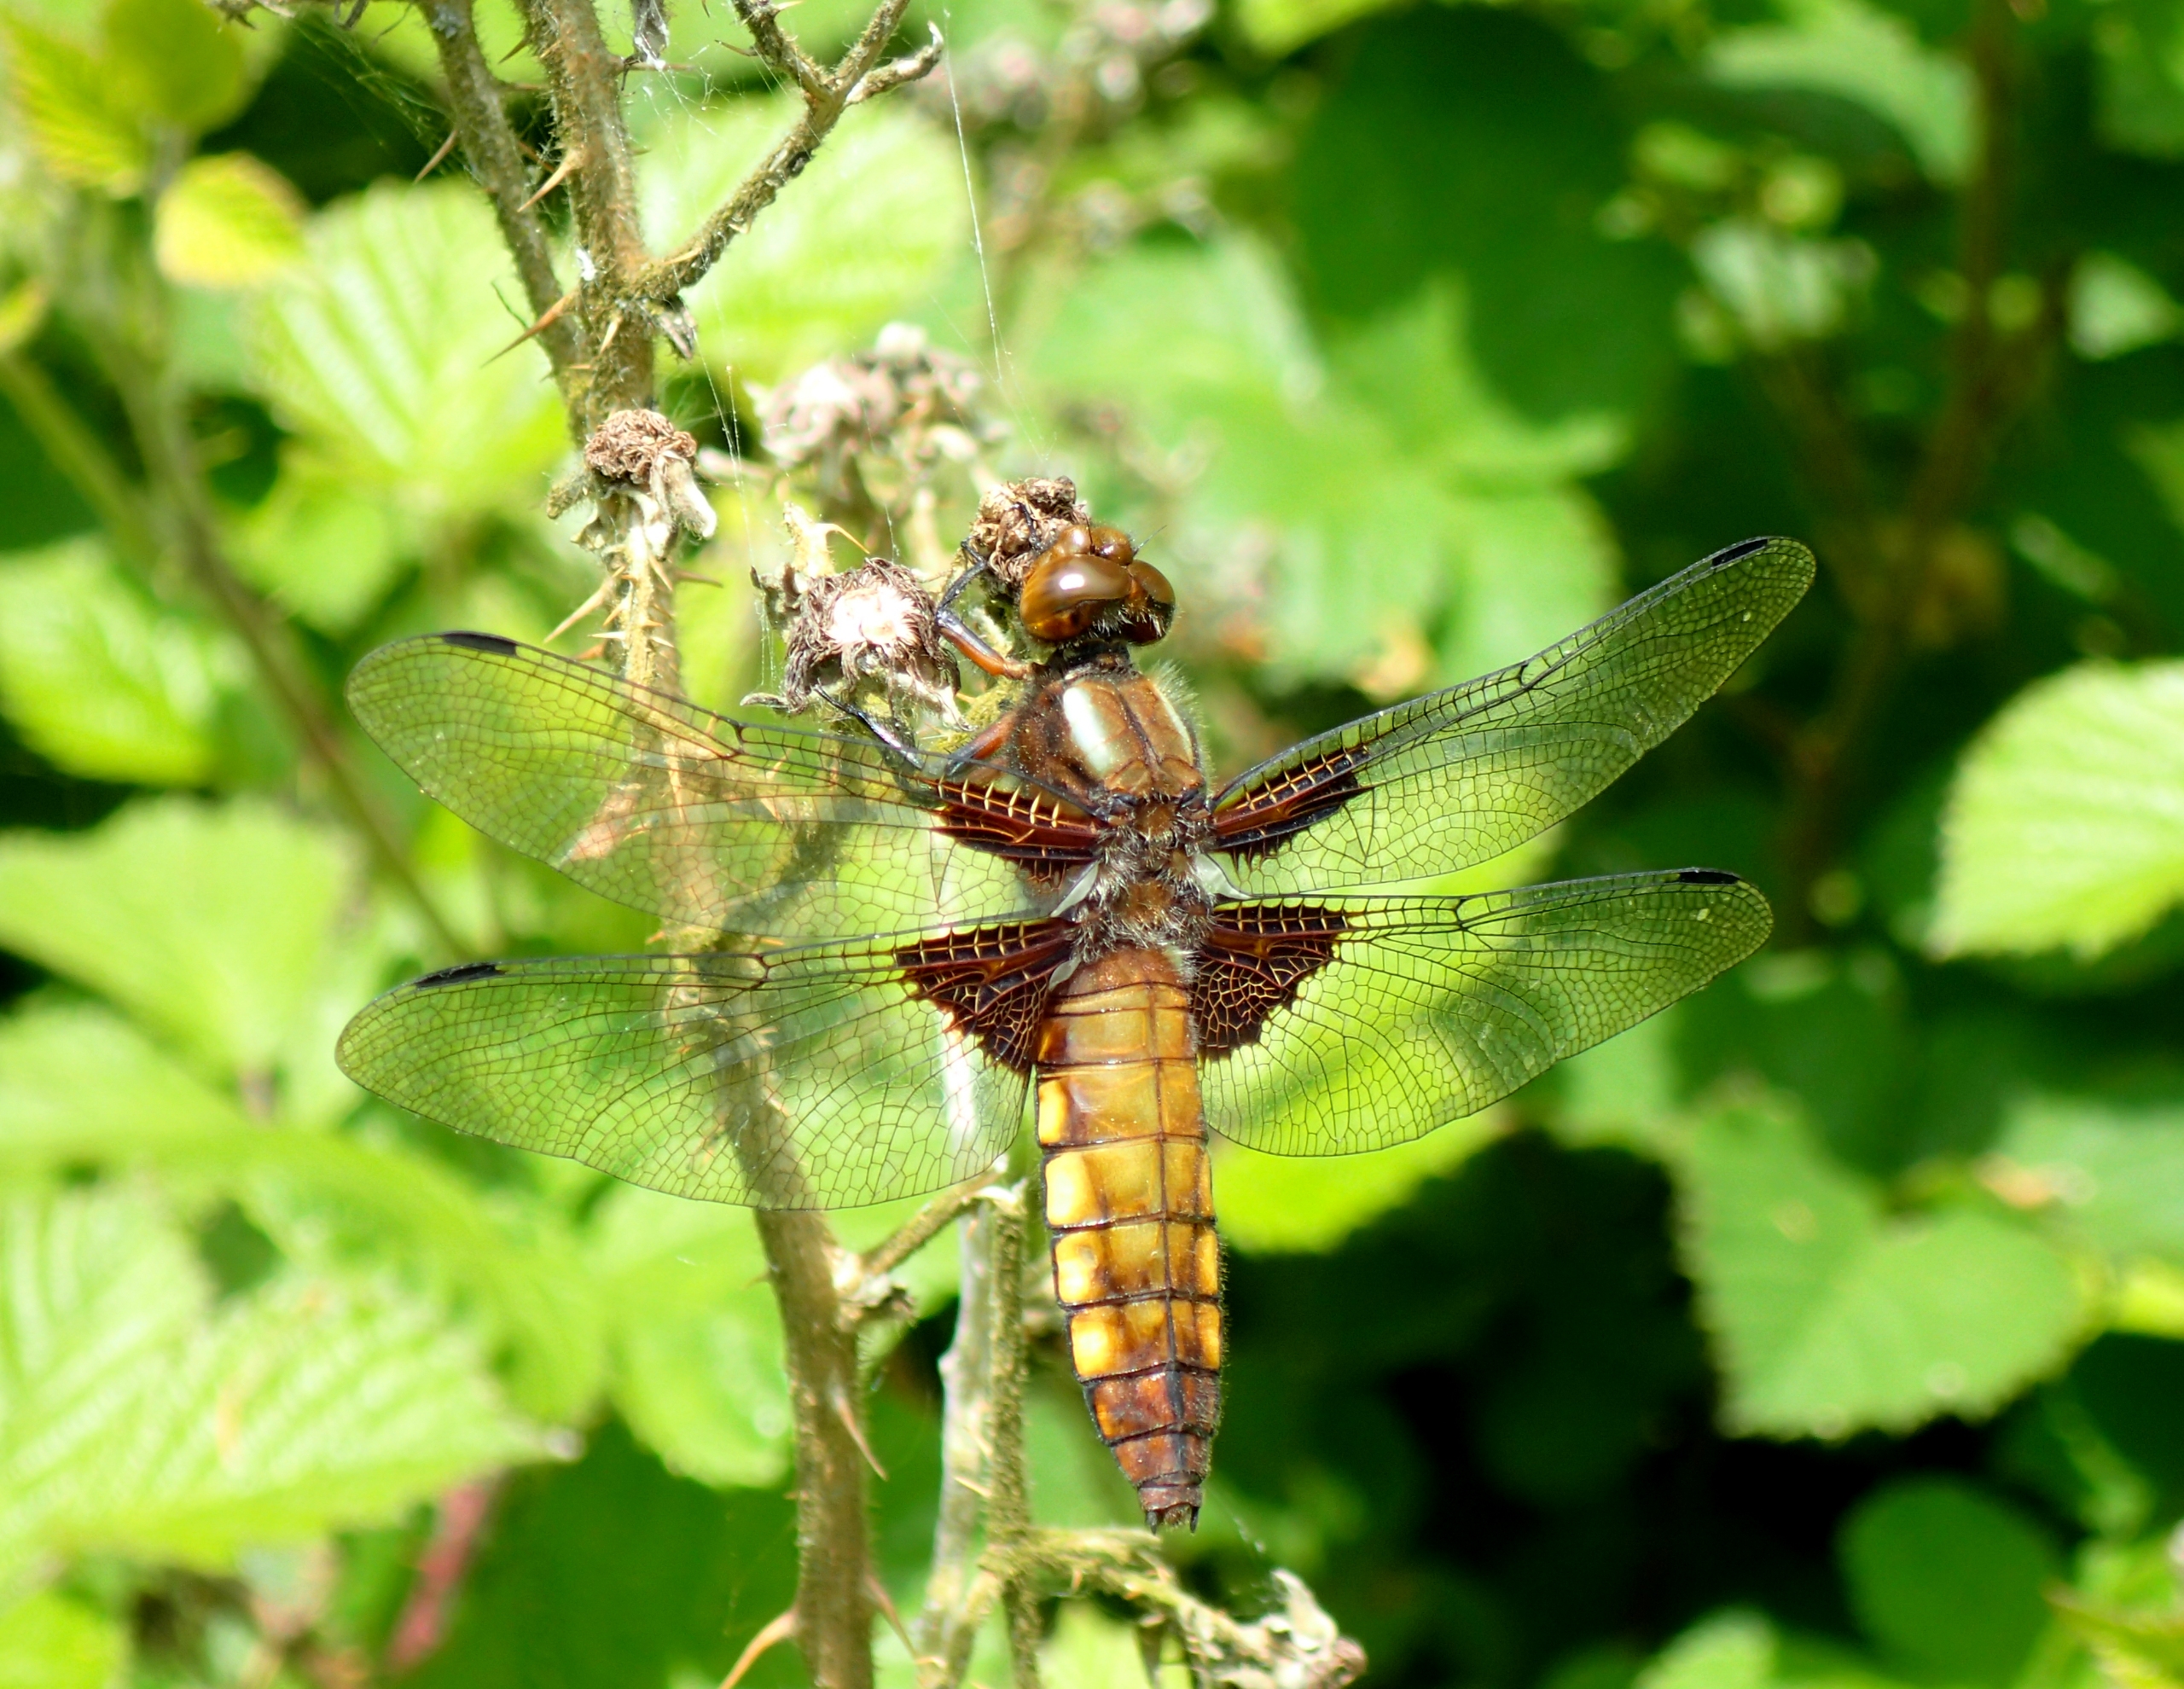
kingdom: Animalia
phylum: Arthropoda
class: Insecta
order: Odonata
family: Libellulidae
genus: Libellula
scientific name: Libellula depressa
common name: Blå libel
